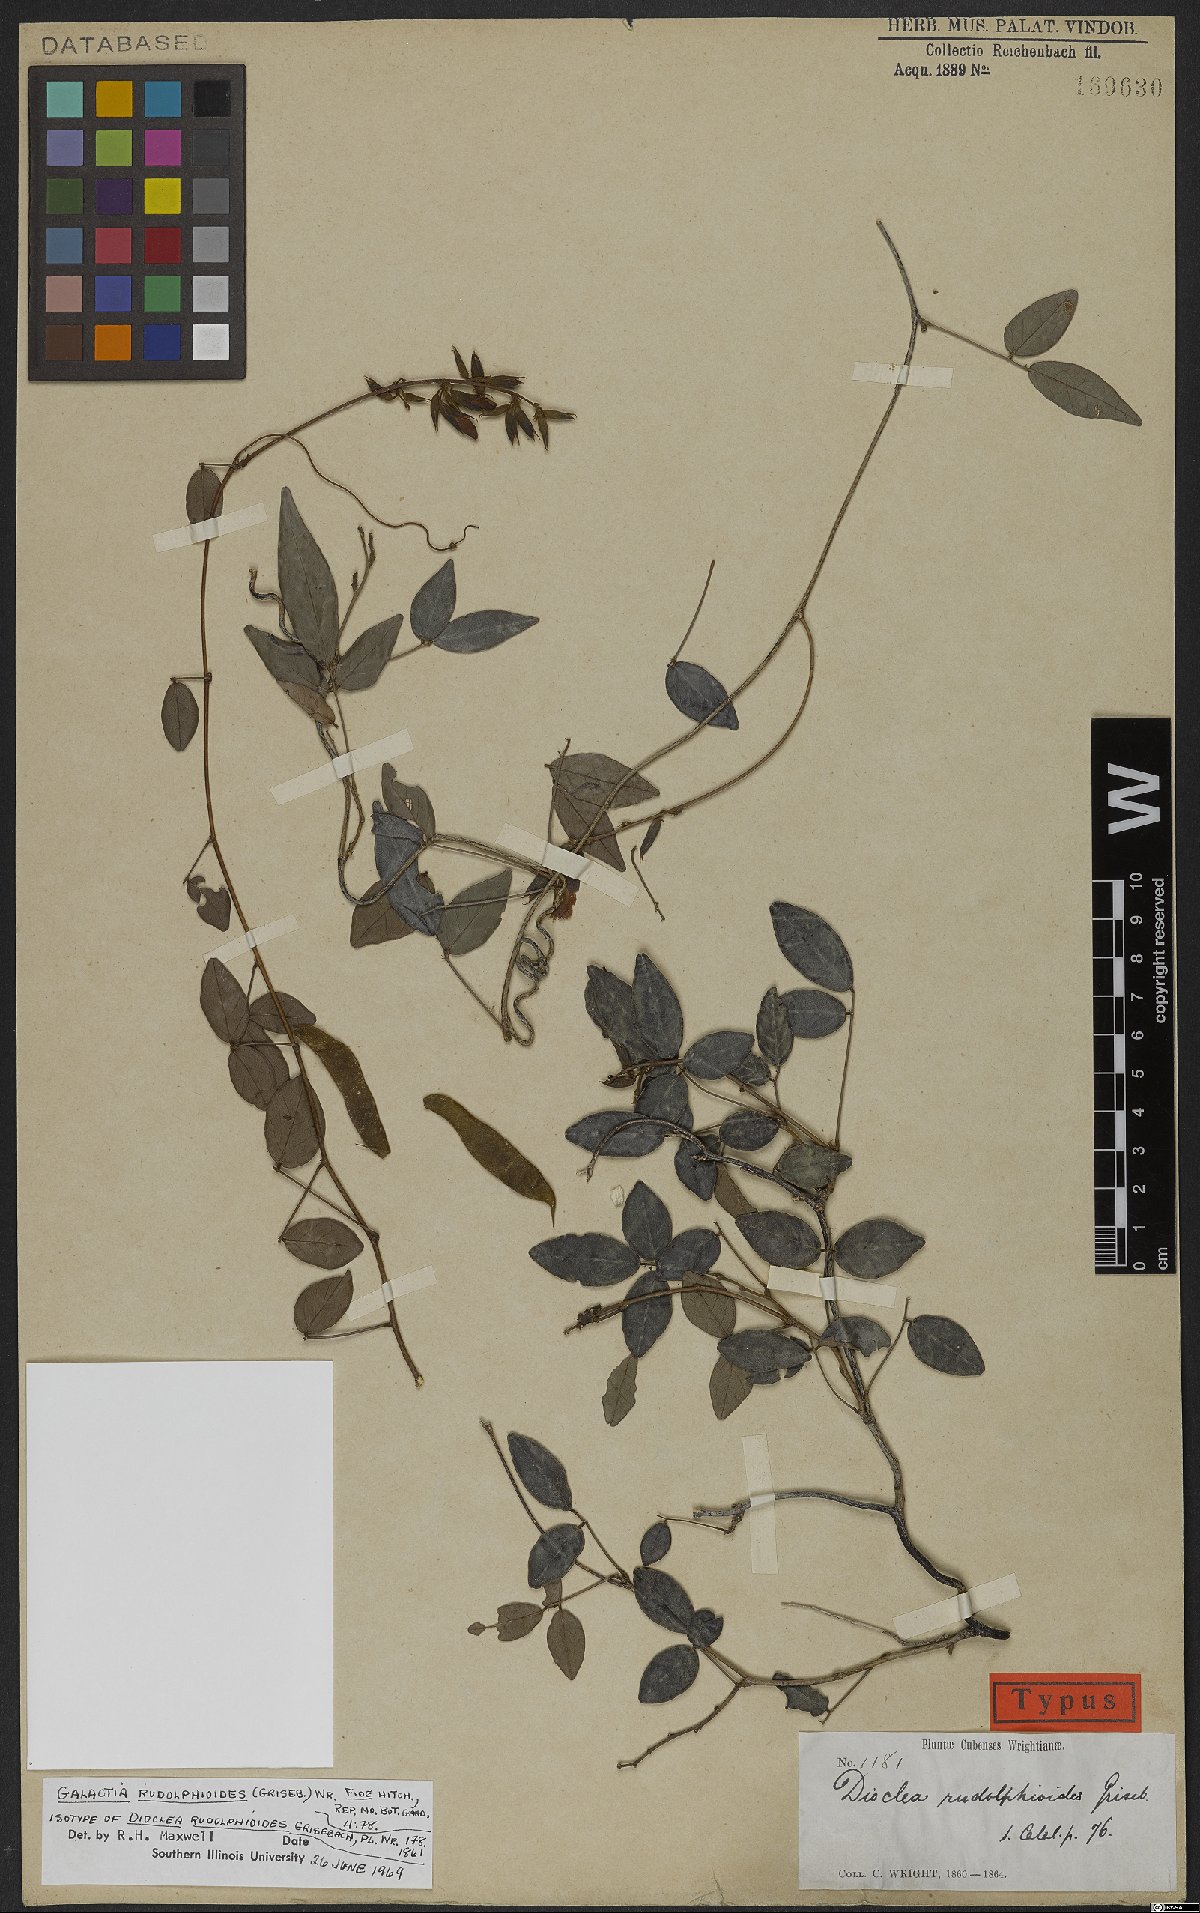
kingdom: Plantae
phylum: Tracheophyta
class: Magnoliopsida
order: Fabales
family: Fabaceae
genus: Rhodopis
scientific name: Rhodopis rudolphioides
